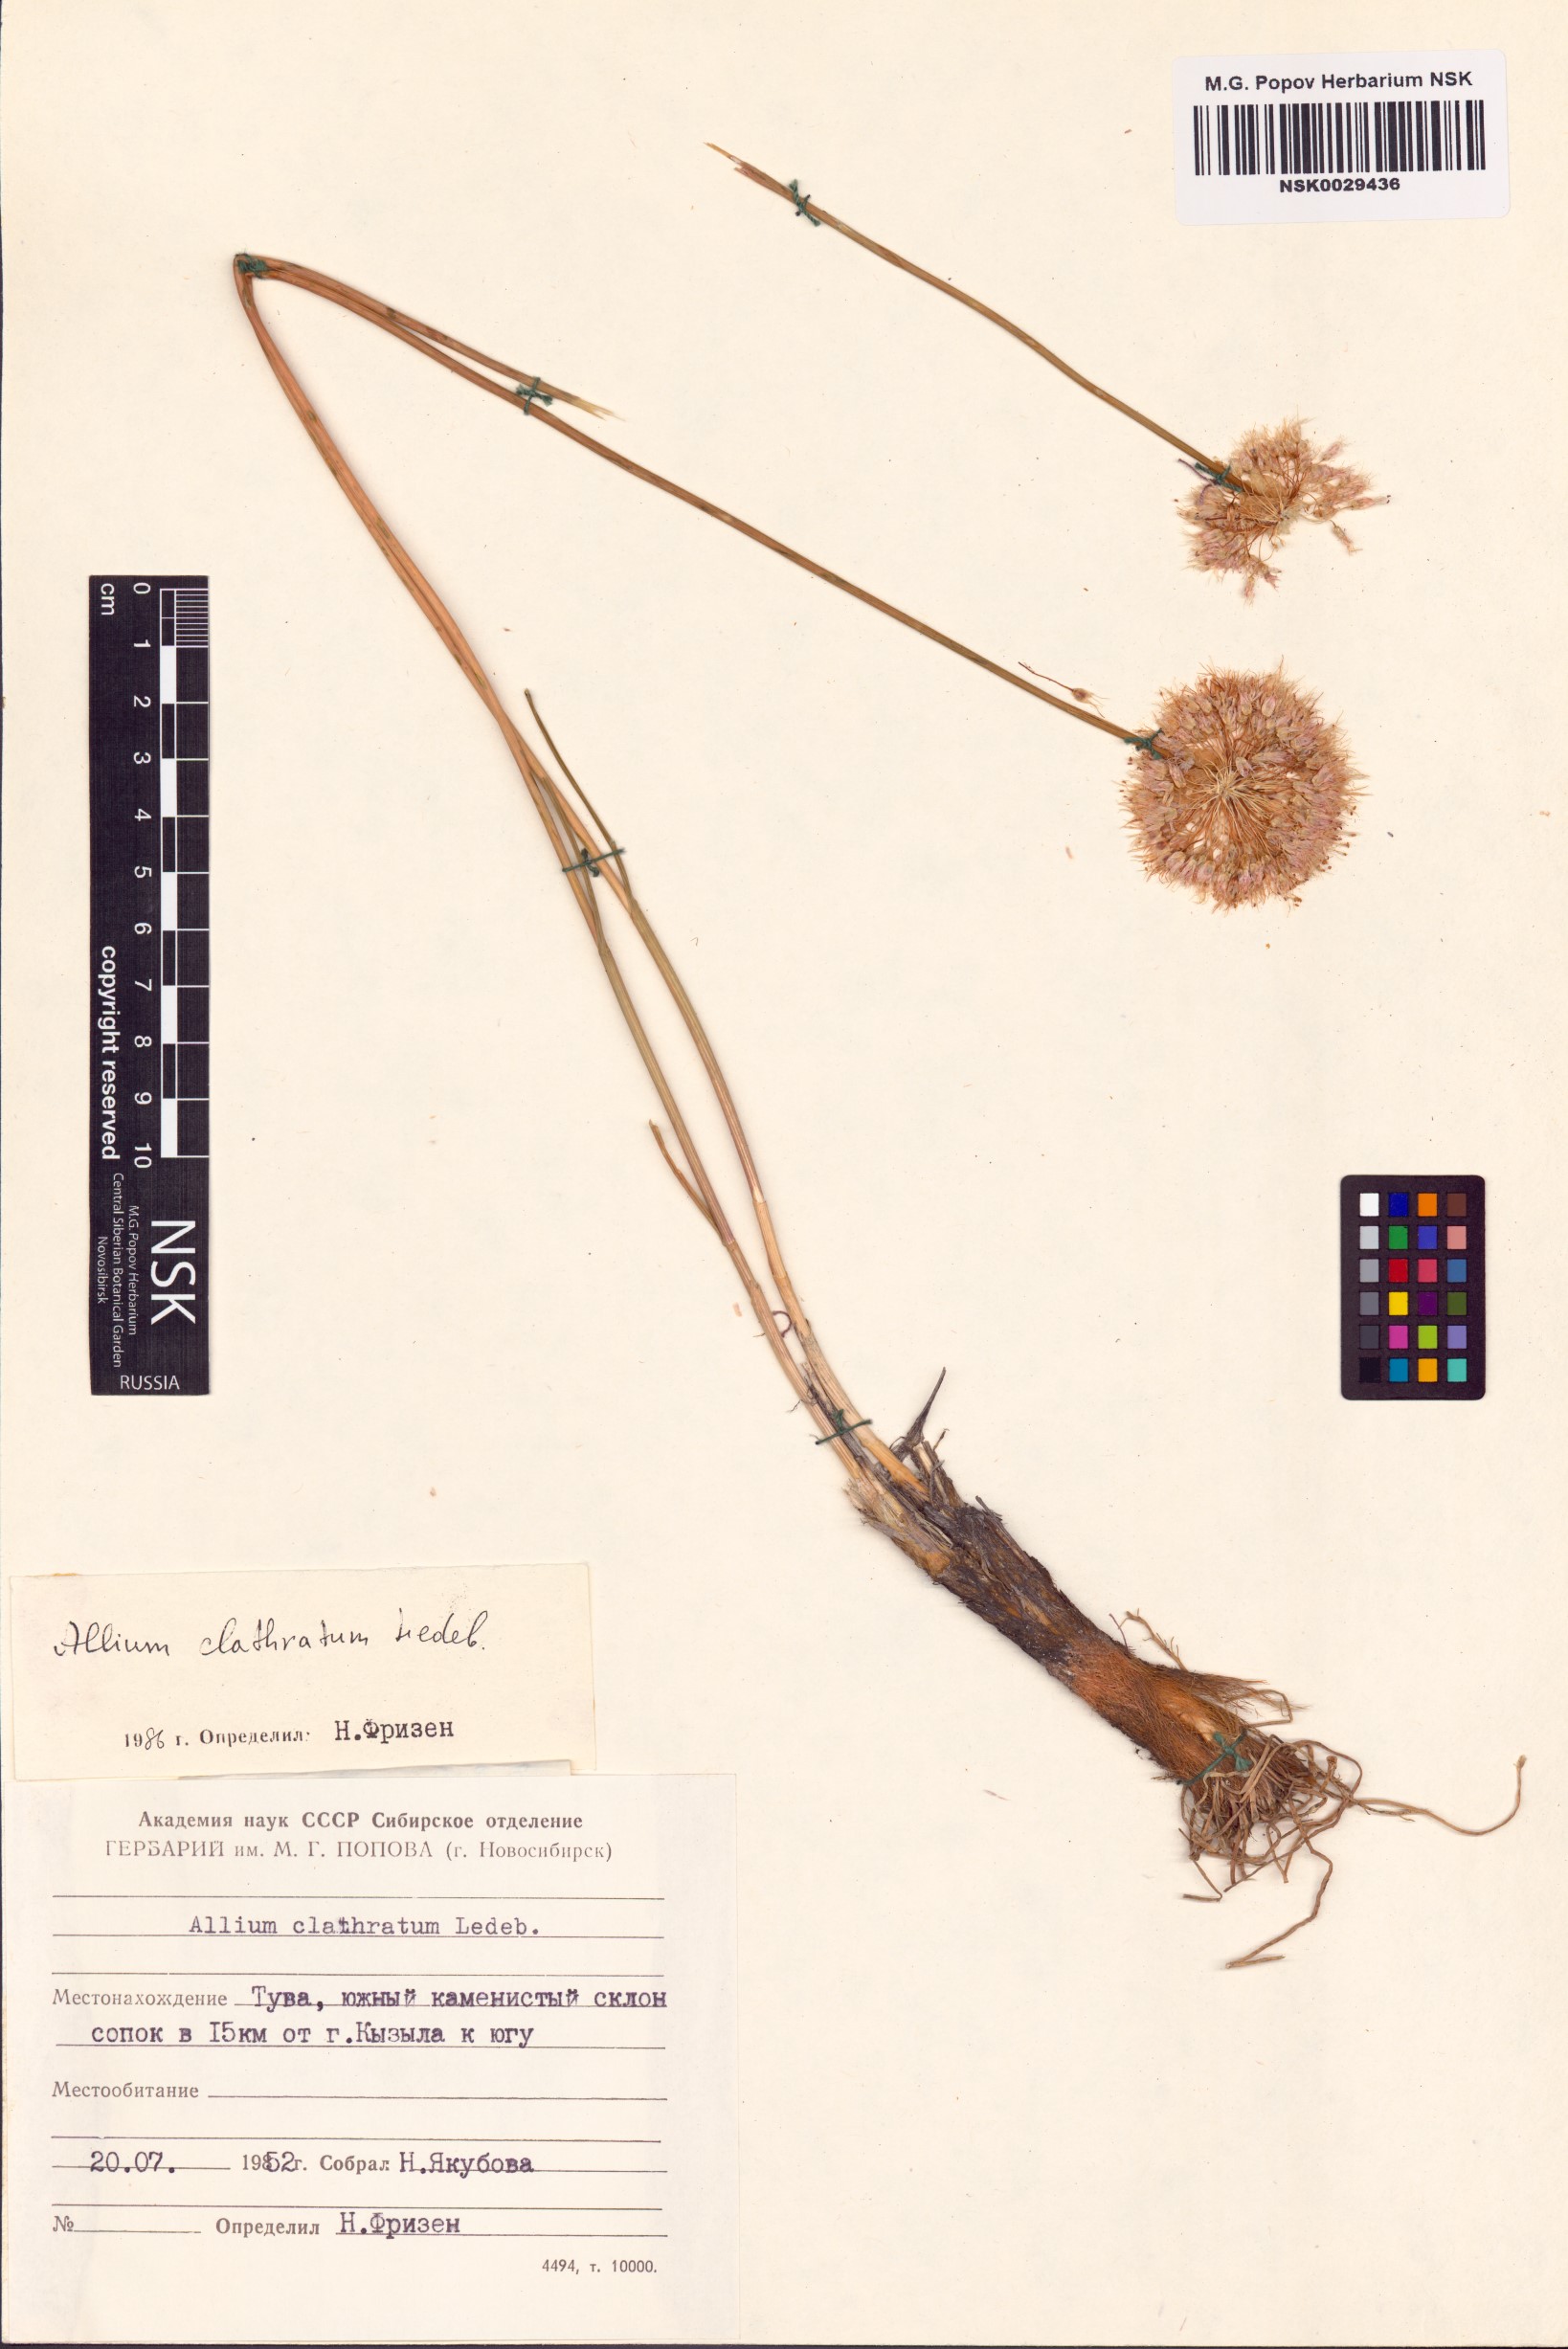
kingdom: Plantae
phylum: Tracheophyta
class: Liliopsida
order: Asparagales
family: Amaryllidaceae
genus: Allium
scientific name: Allium clathratum
